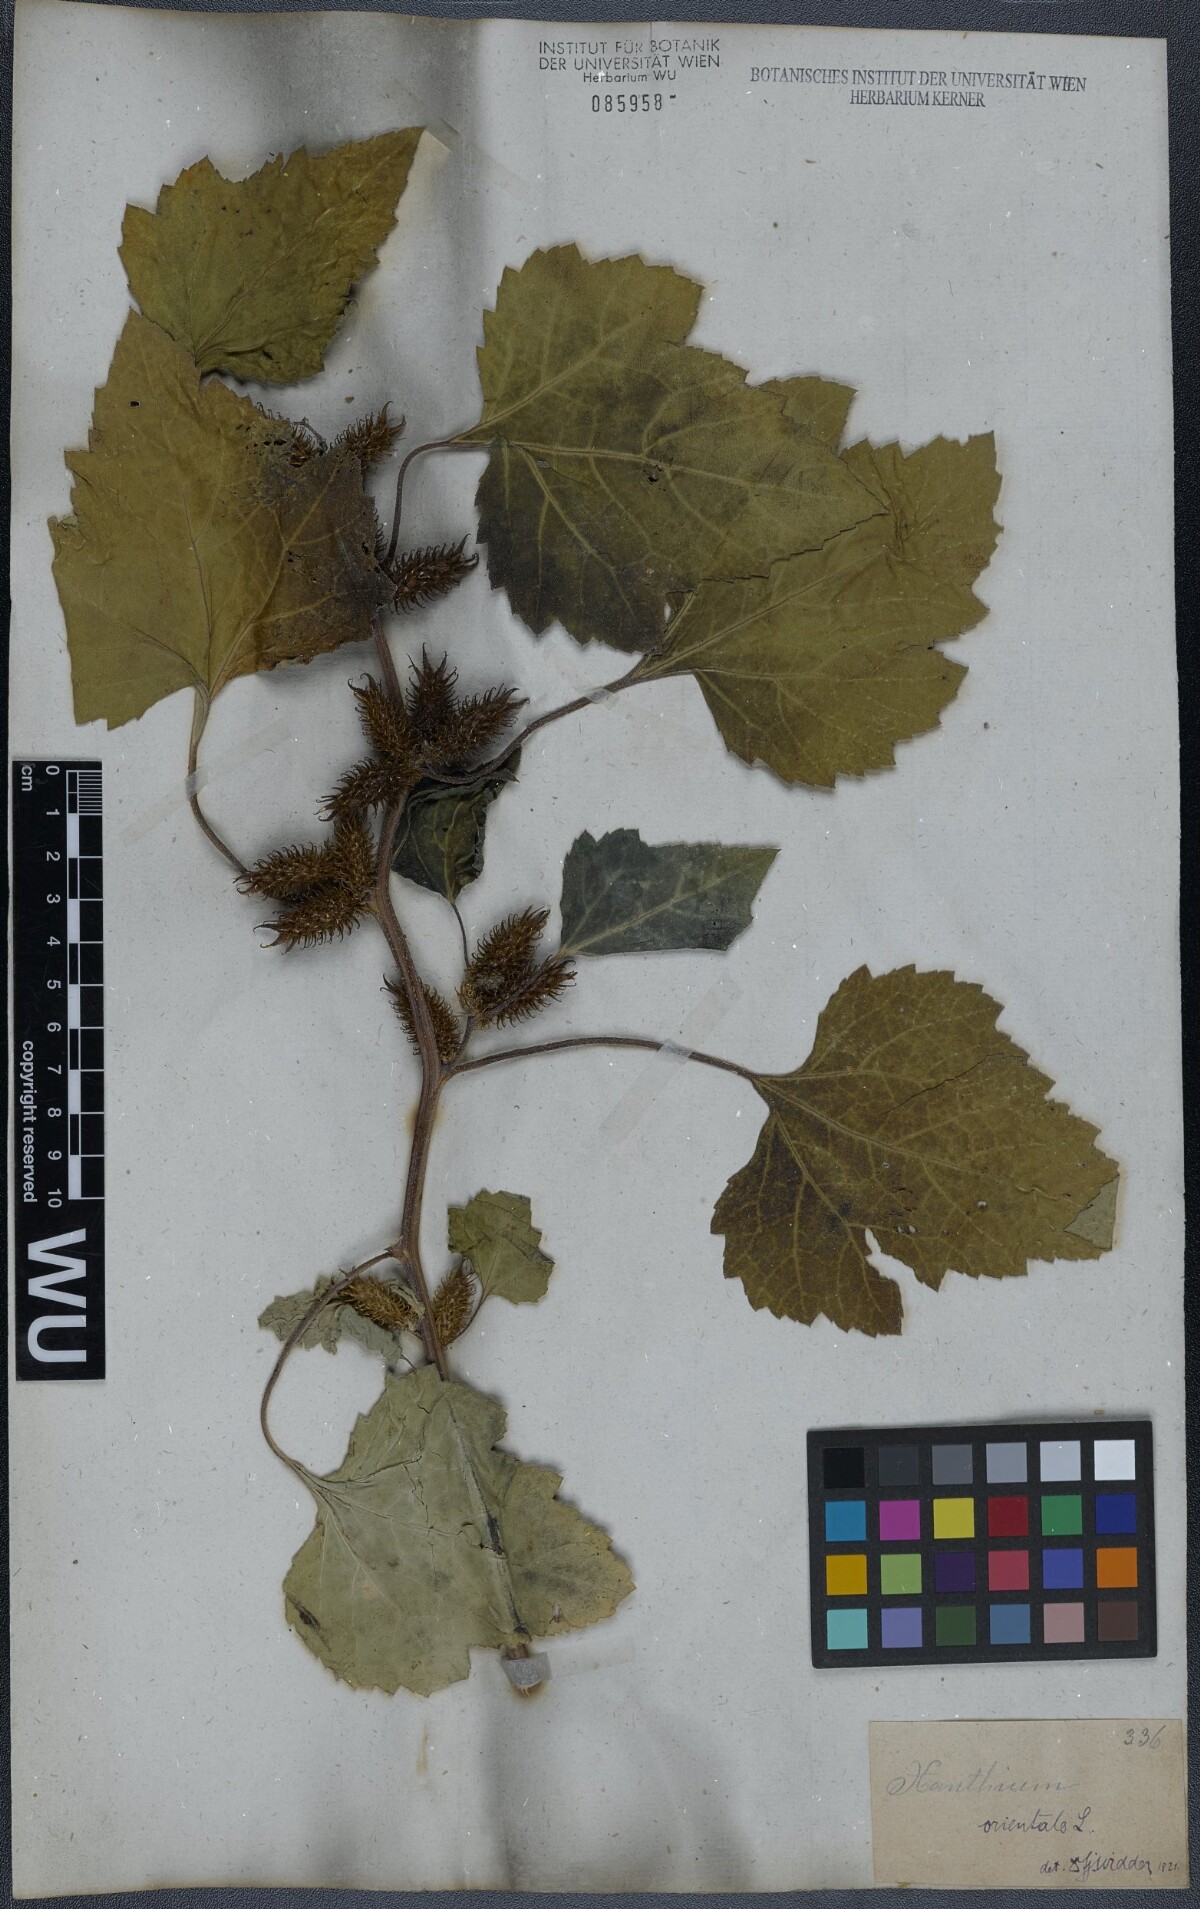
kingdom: Plantae
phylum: Tracheophyta
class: Magnoliopsida
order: Asterales
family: Asteraceae
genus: Xanthium
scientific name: Xanthium orientale
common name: Californian burr
